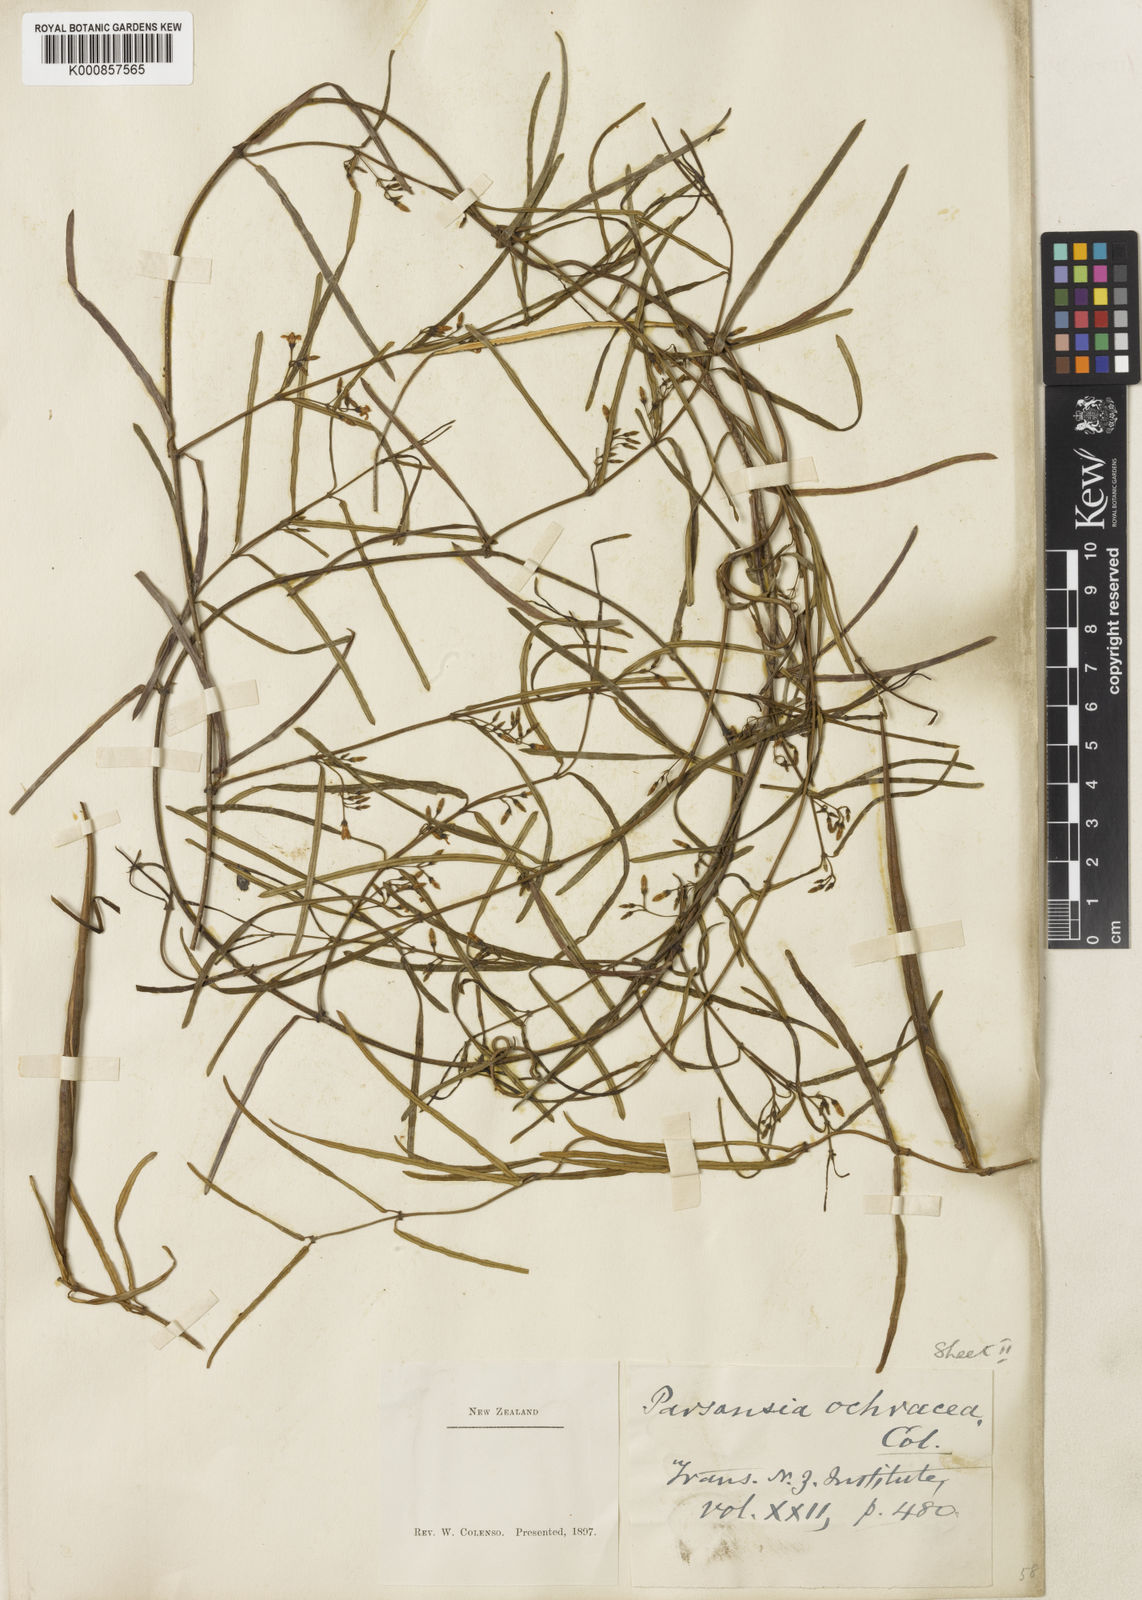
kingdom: Plantae
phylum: Tracheophyta
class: Magnoliopsida
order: Gentianales
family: Apocynaceae
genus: Parsonsia
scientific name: Parsonsia capsularis
